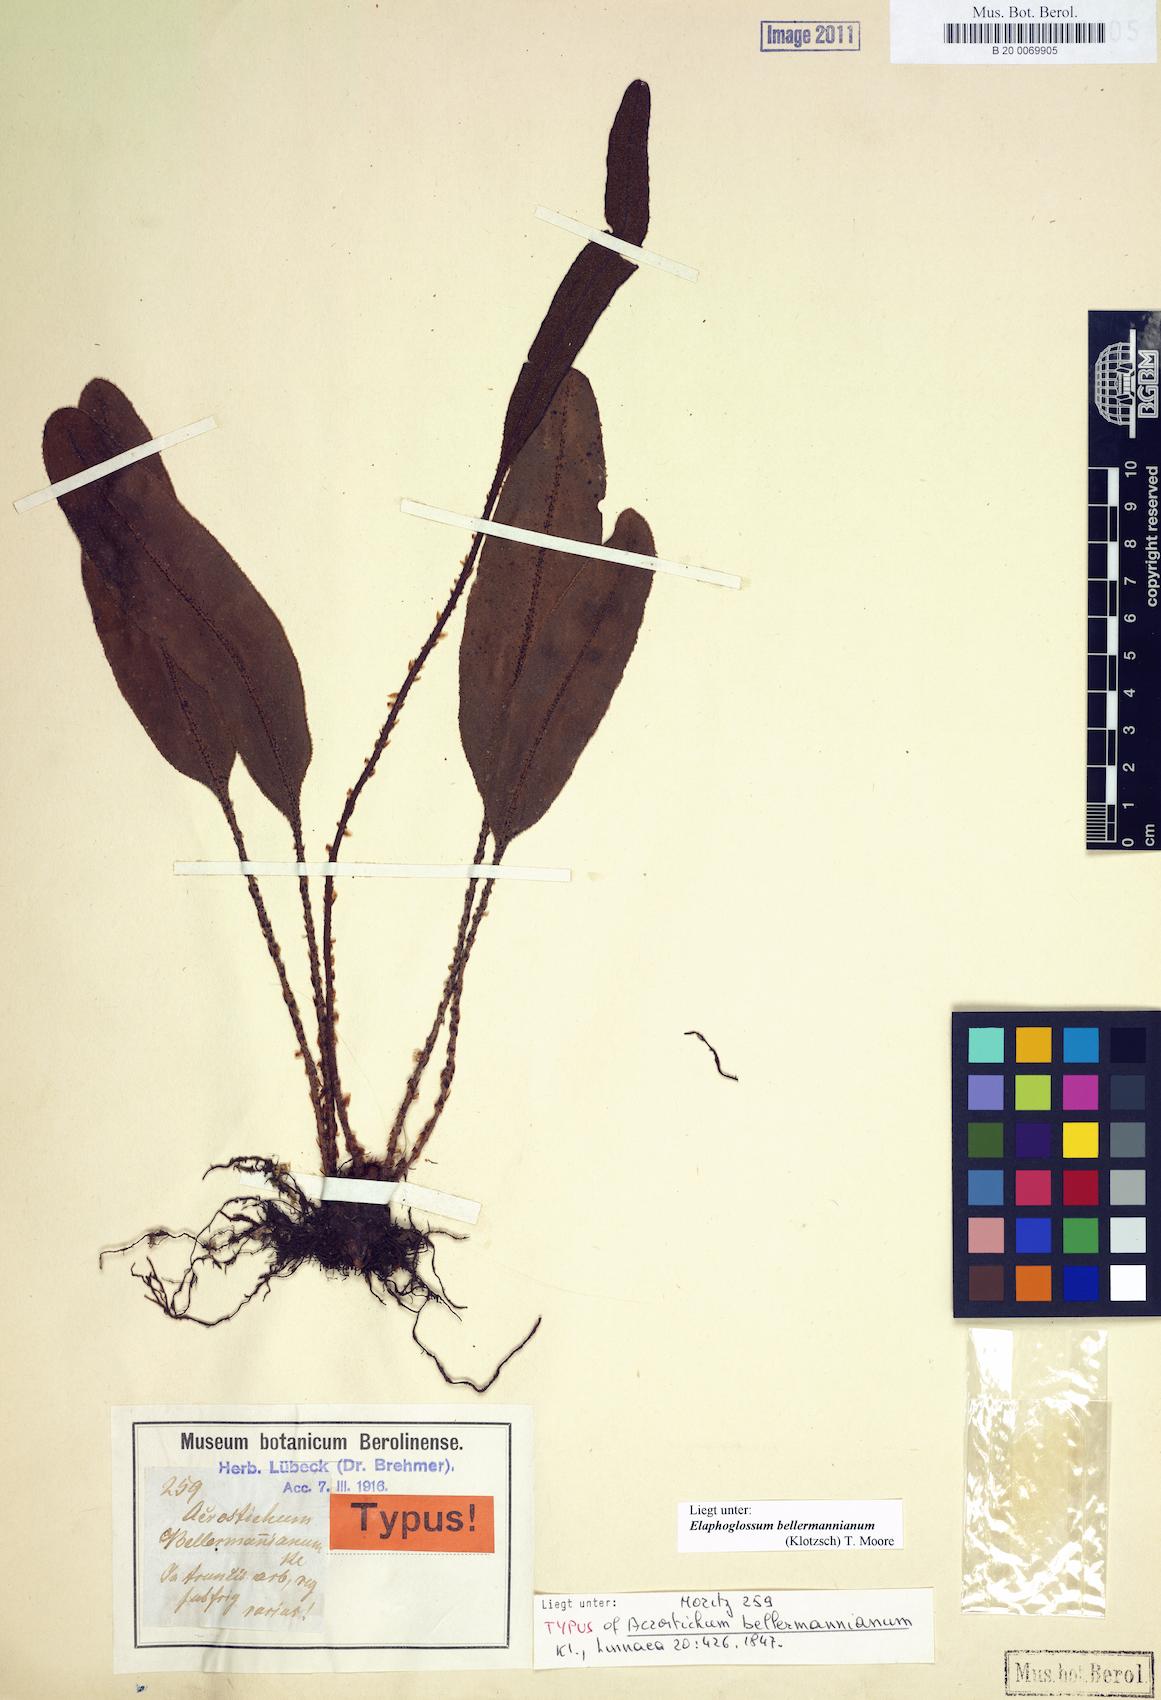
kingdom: Plantae
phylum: Tracheophyta
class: Polypodiopsida
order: Polypodiales
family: Dryopteridaceae
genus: Elaphoglossum
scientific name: Elaphoglossum bellermannianum
